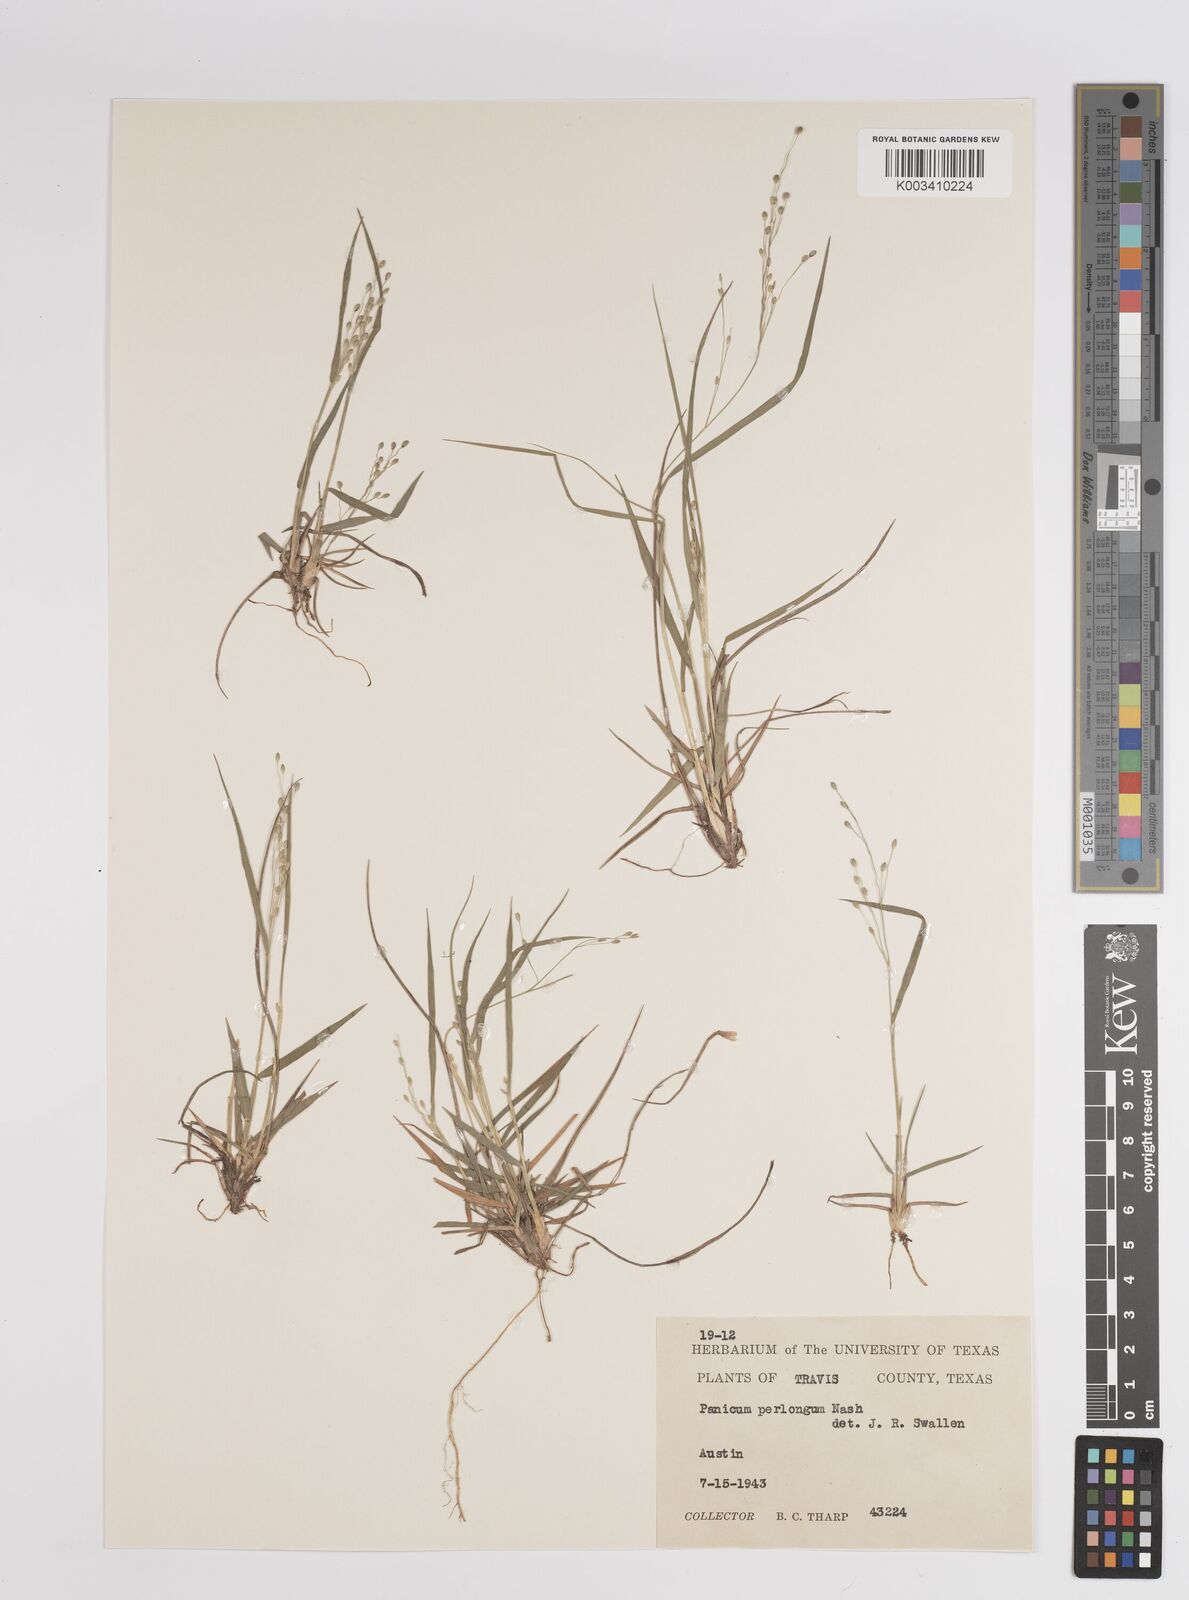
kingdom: Plantae
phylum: Tracheophyta
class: Liliopsida
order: Poales
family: Poaceae
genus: Dichanthelium
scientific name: Dichanthelium linearifolium
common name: Linear-leaved panicgrass
